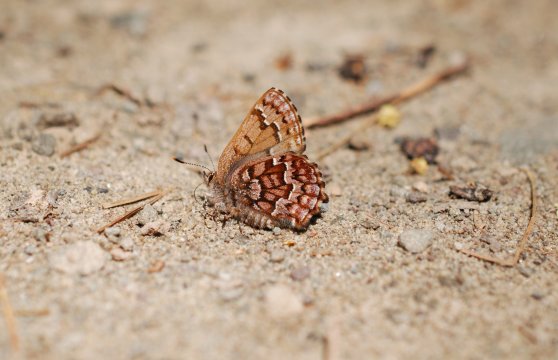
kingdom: Animalia
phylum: Arthropoda
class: Insecta
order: Lepidoptera
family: Lycaenidae
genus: Incisalia
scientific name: Incisalia niphon
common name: Eastern Pine Elfin
